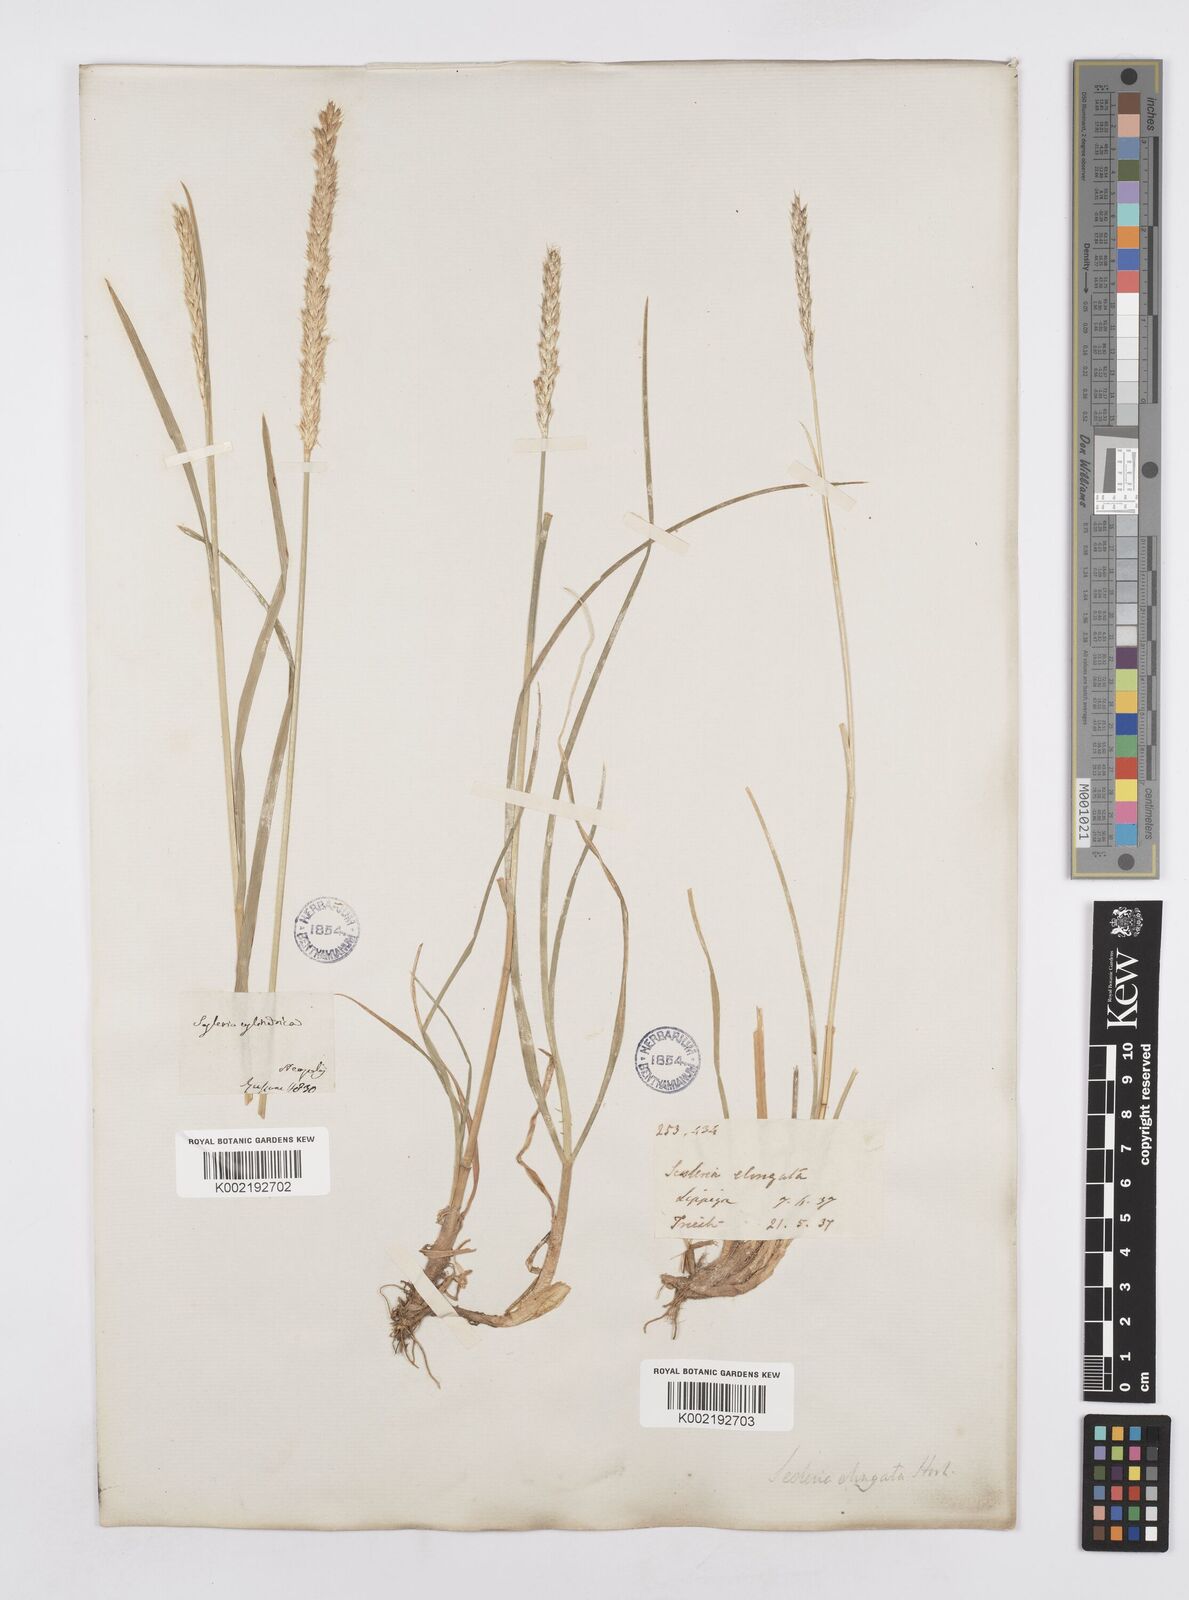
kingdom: Plantae
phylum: Tracheophyta
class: Liliopsida
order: Poales
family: Poaceae
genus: Sesleria
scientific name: Sesleria autumnalis
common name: Autumn moor grass
